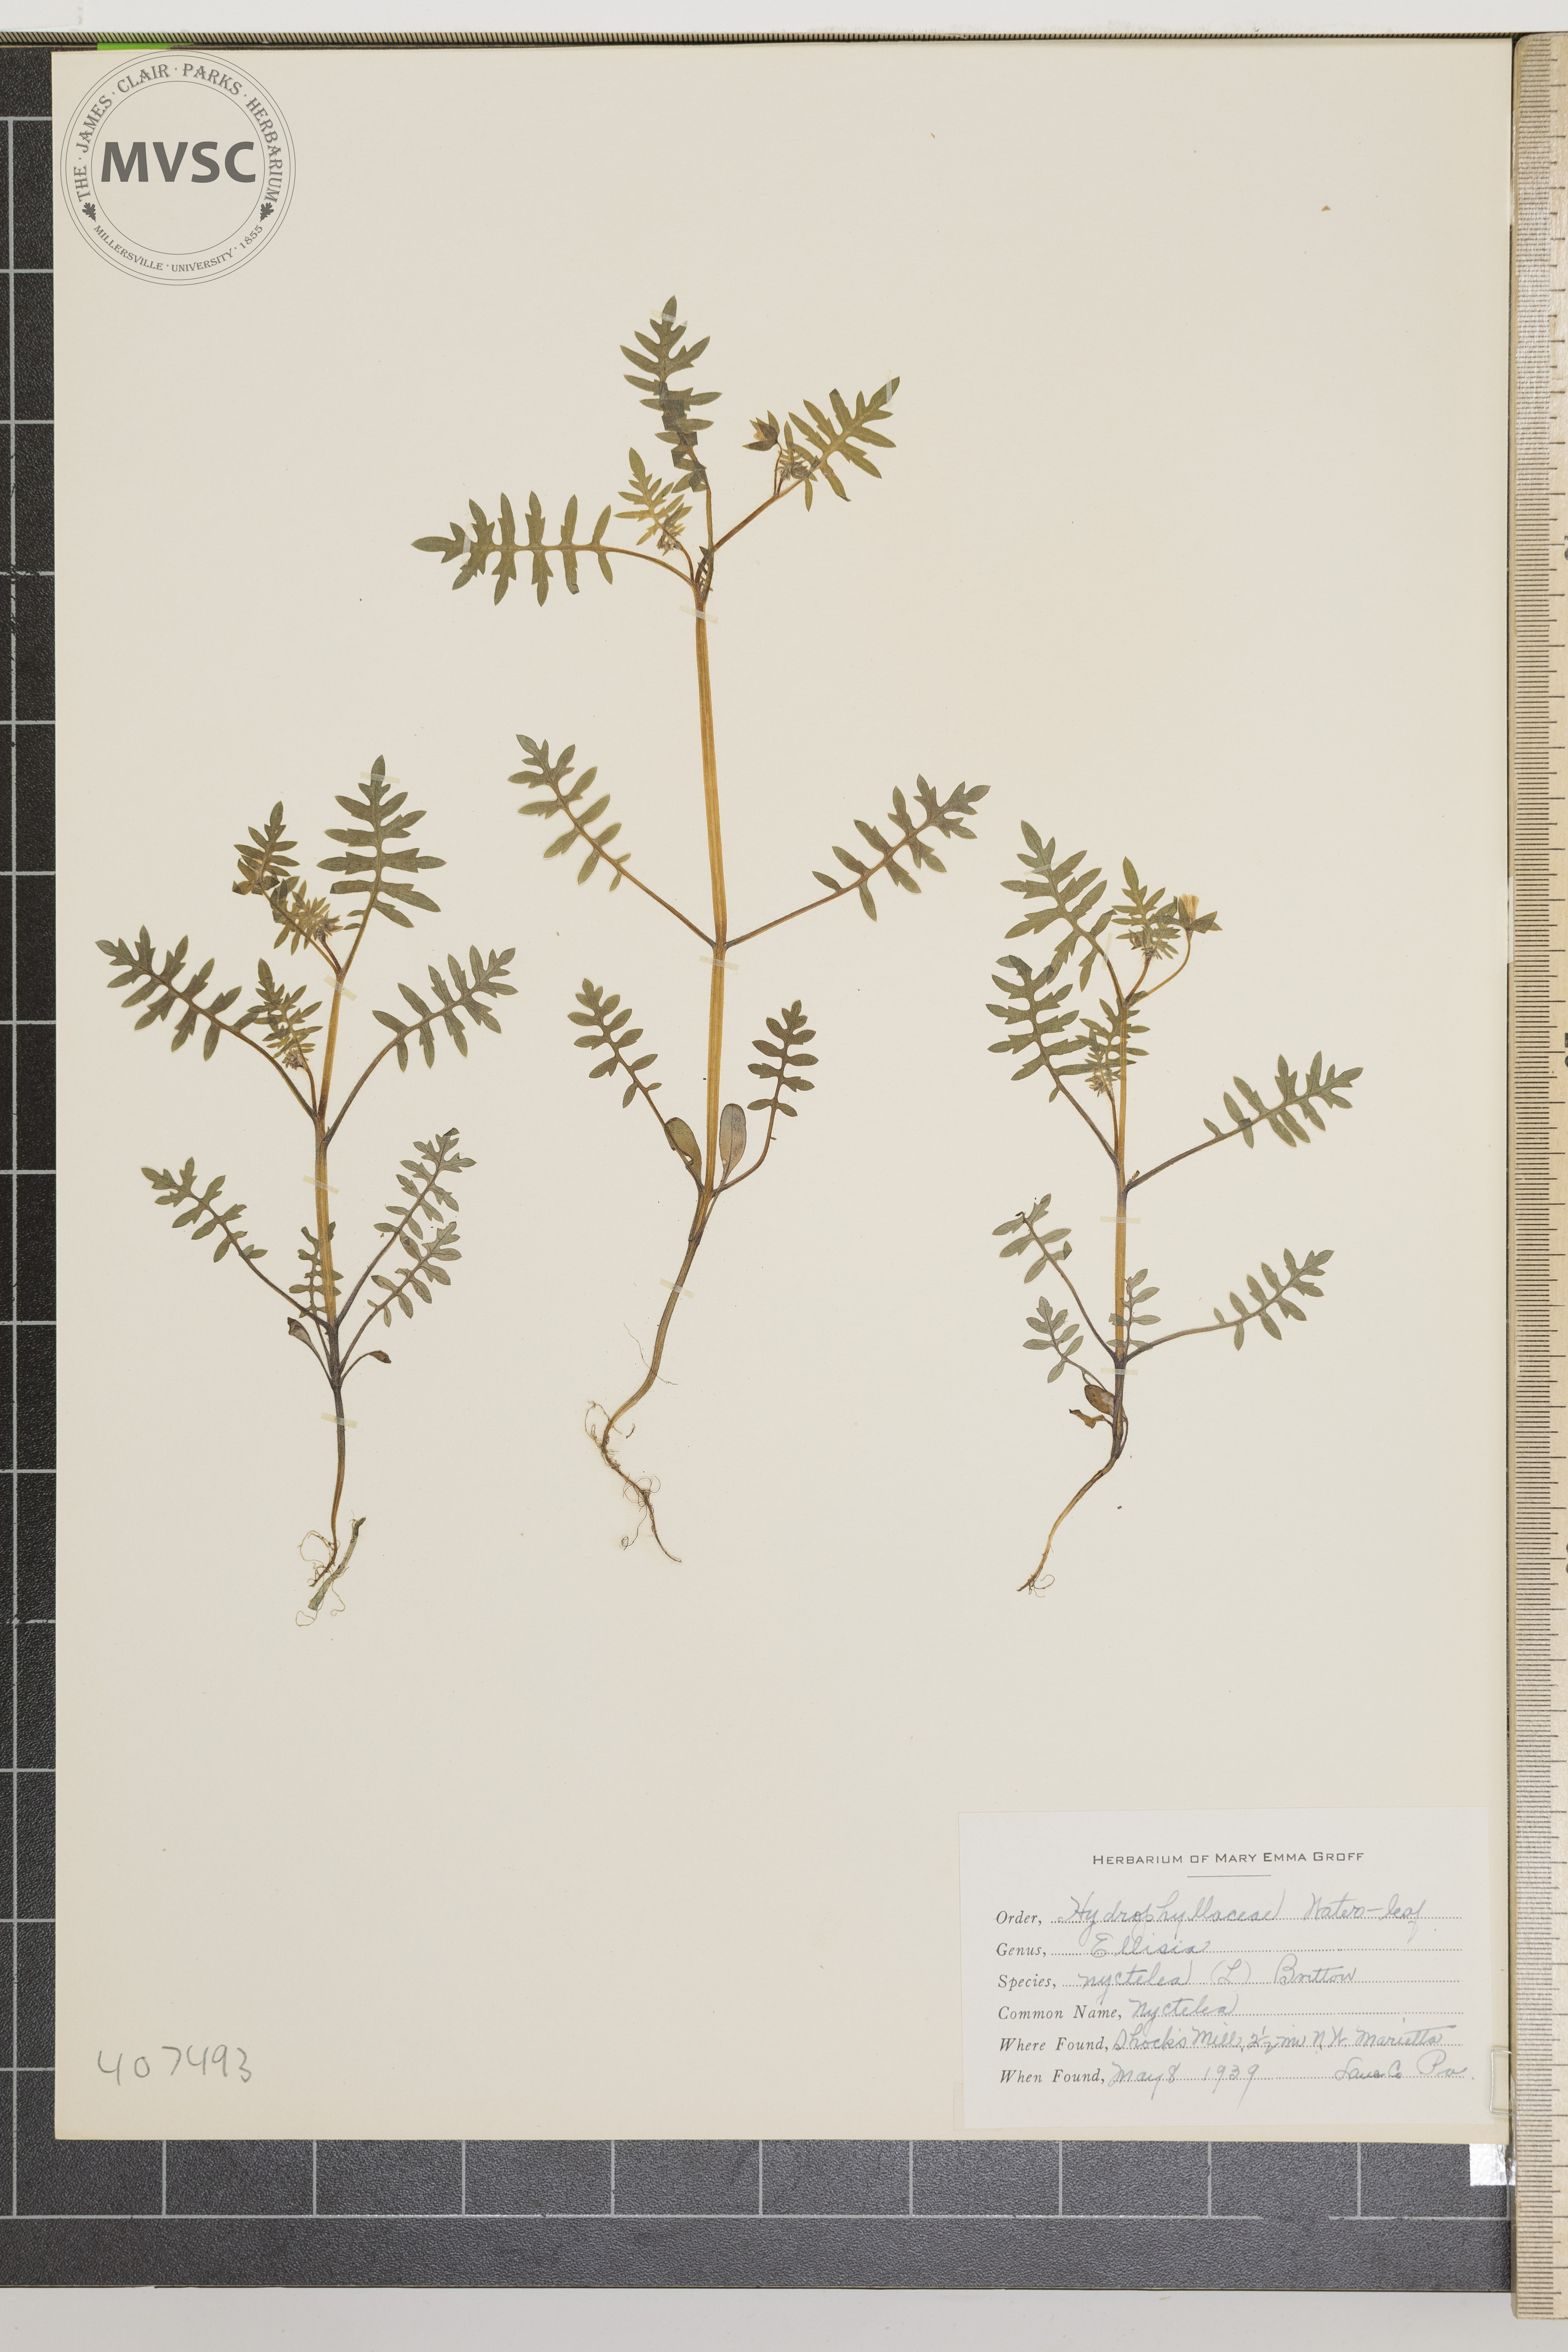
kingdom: Plantae
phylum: Tracheophyta
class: Magnoliopsida
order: Boraginales
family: Hydrophyllaceae
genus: Ellisia
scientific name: Ellisia nyctelea
